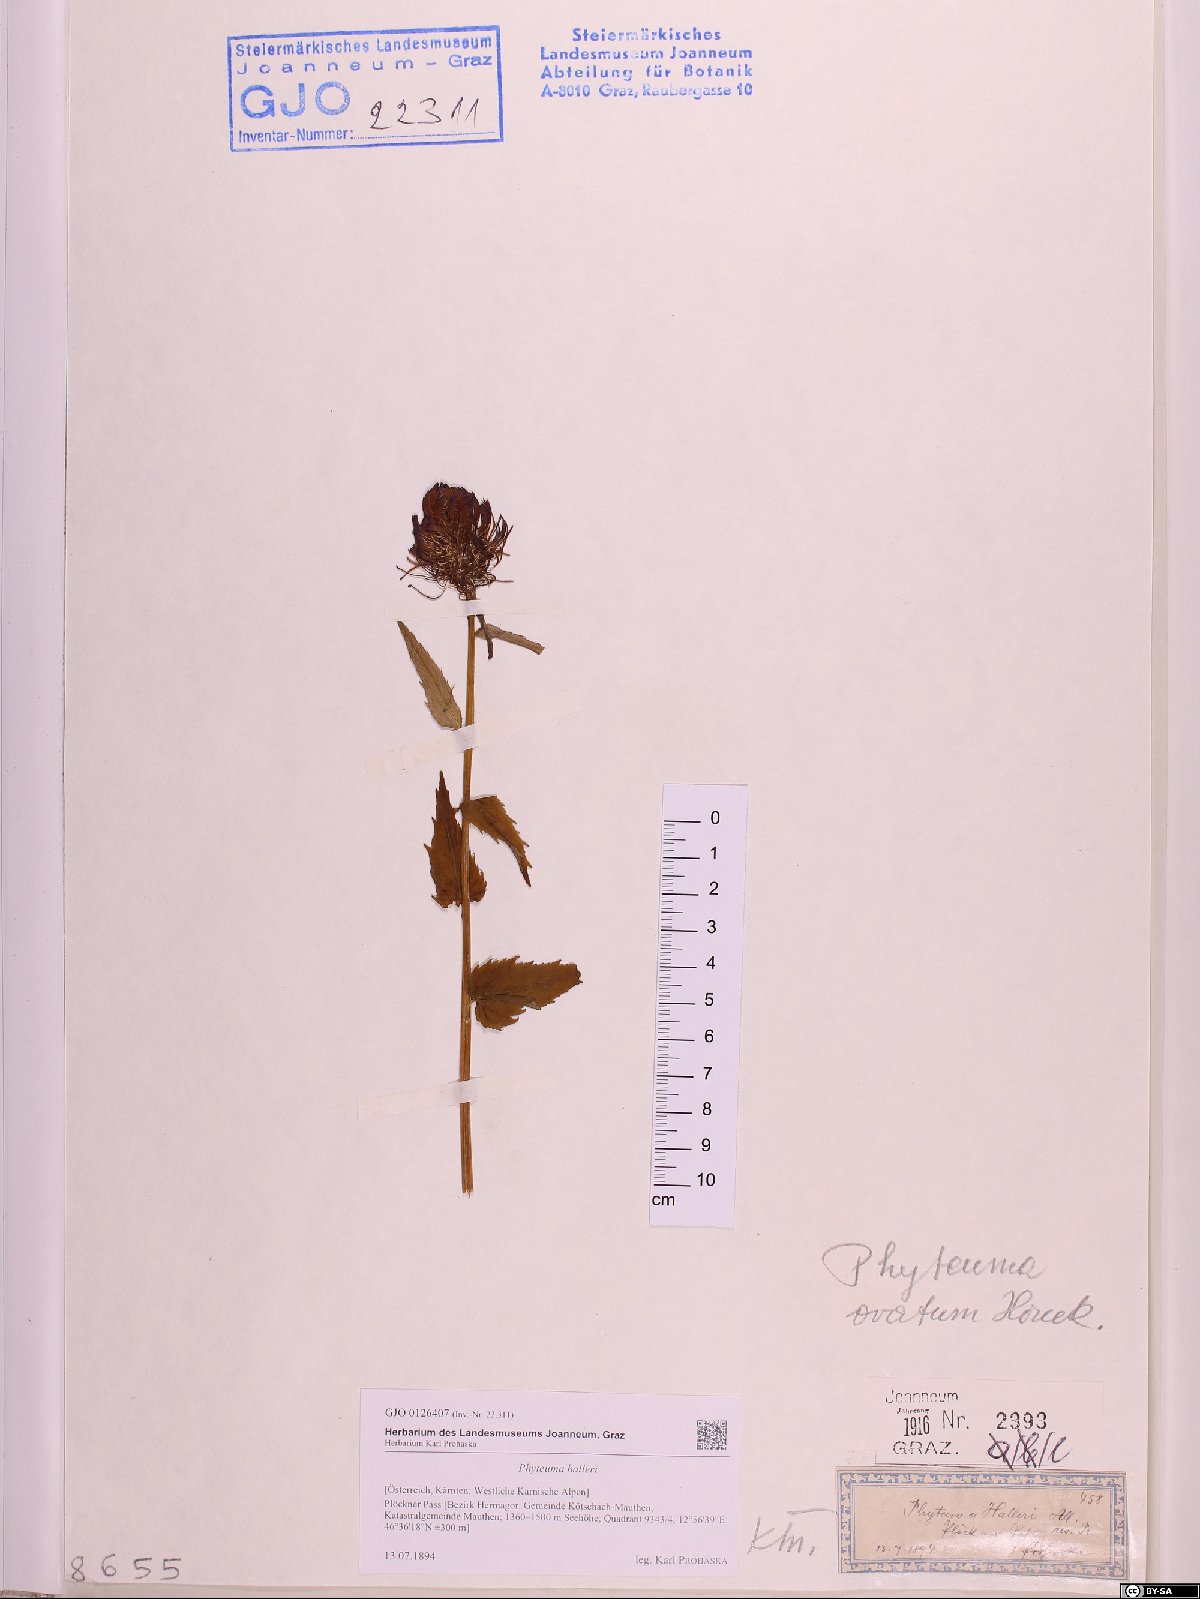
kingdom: Plantae
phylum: Tracheophyta
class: Magnoliopsida
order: Asterales
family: Campanulaceae
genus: Phyteuma
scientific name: Phyteuma ovatum
